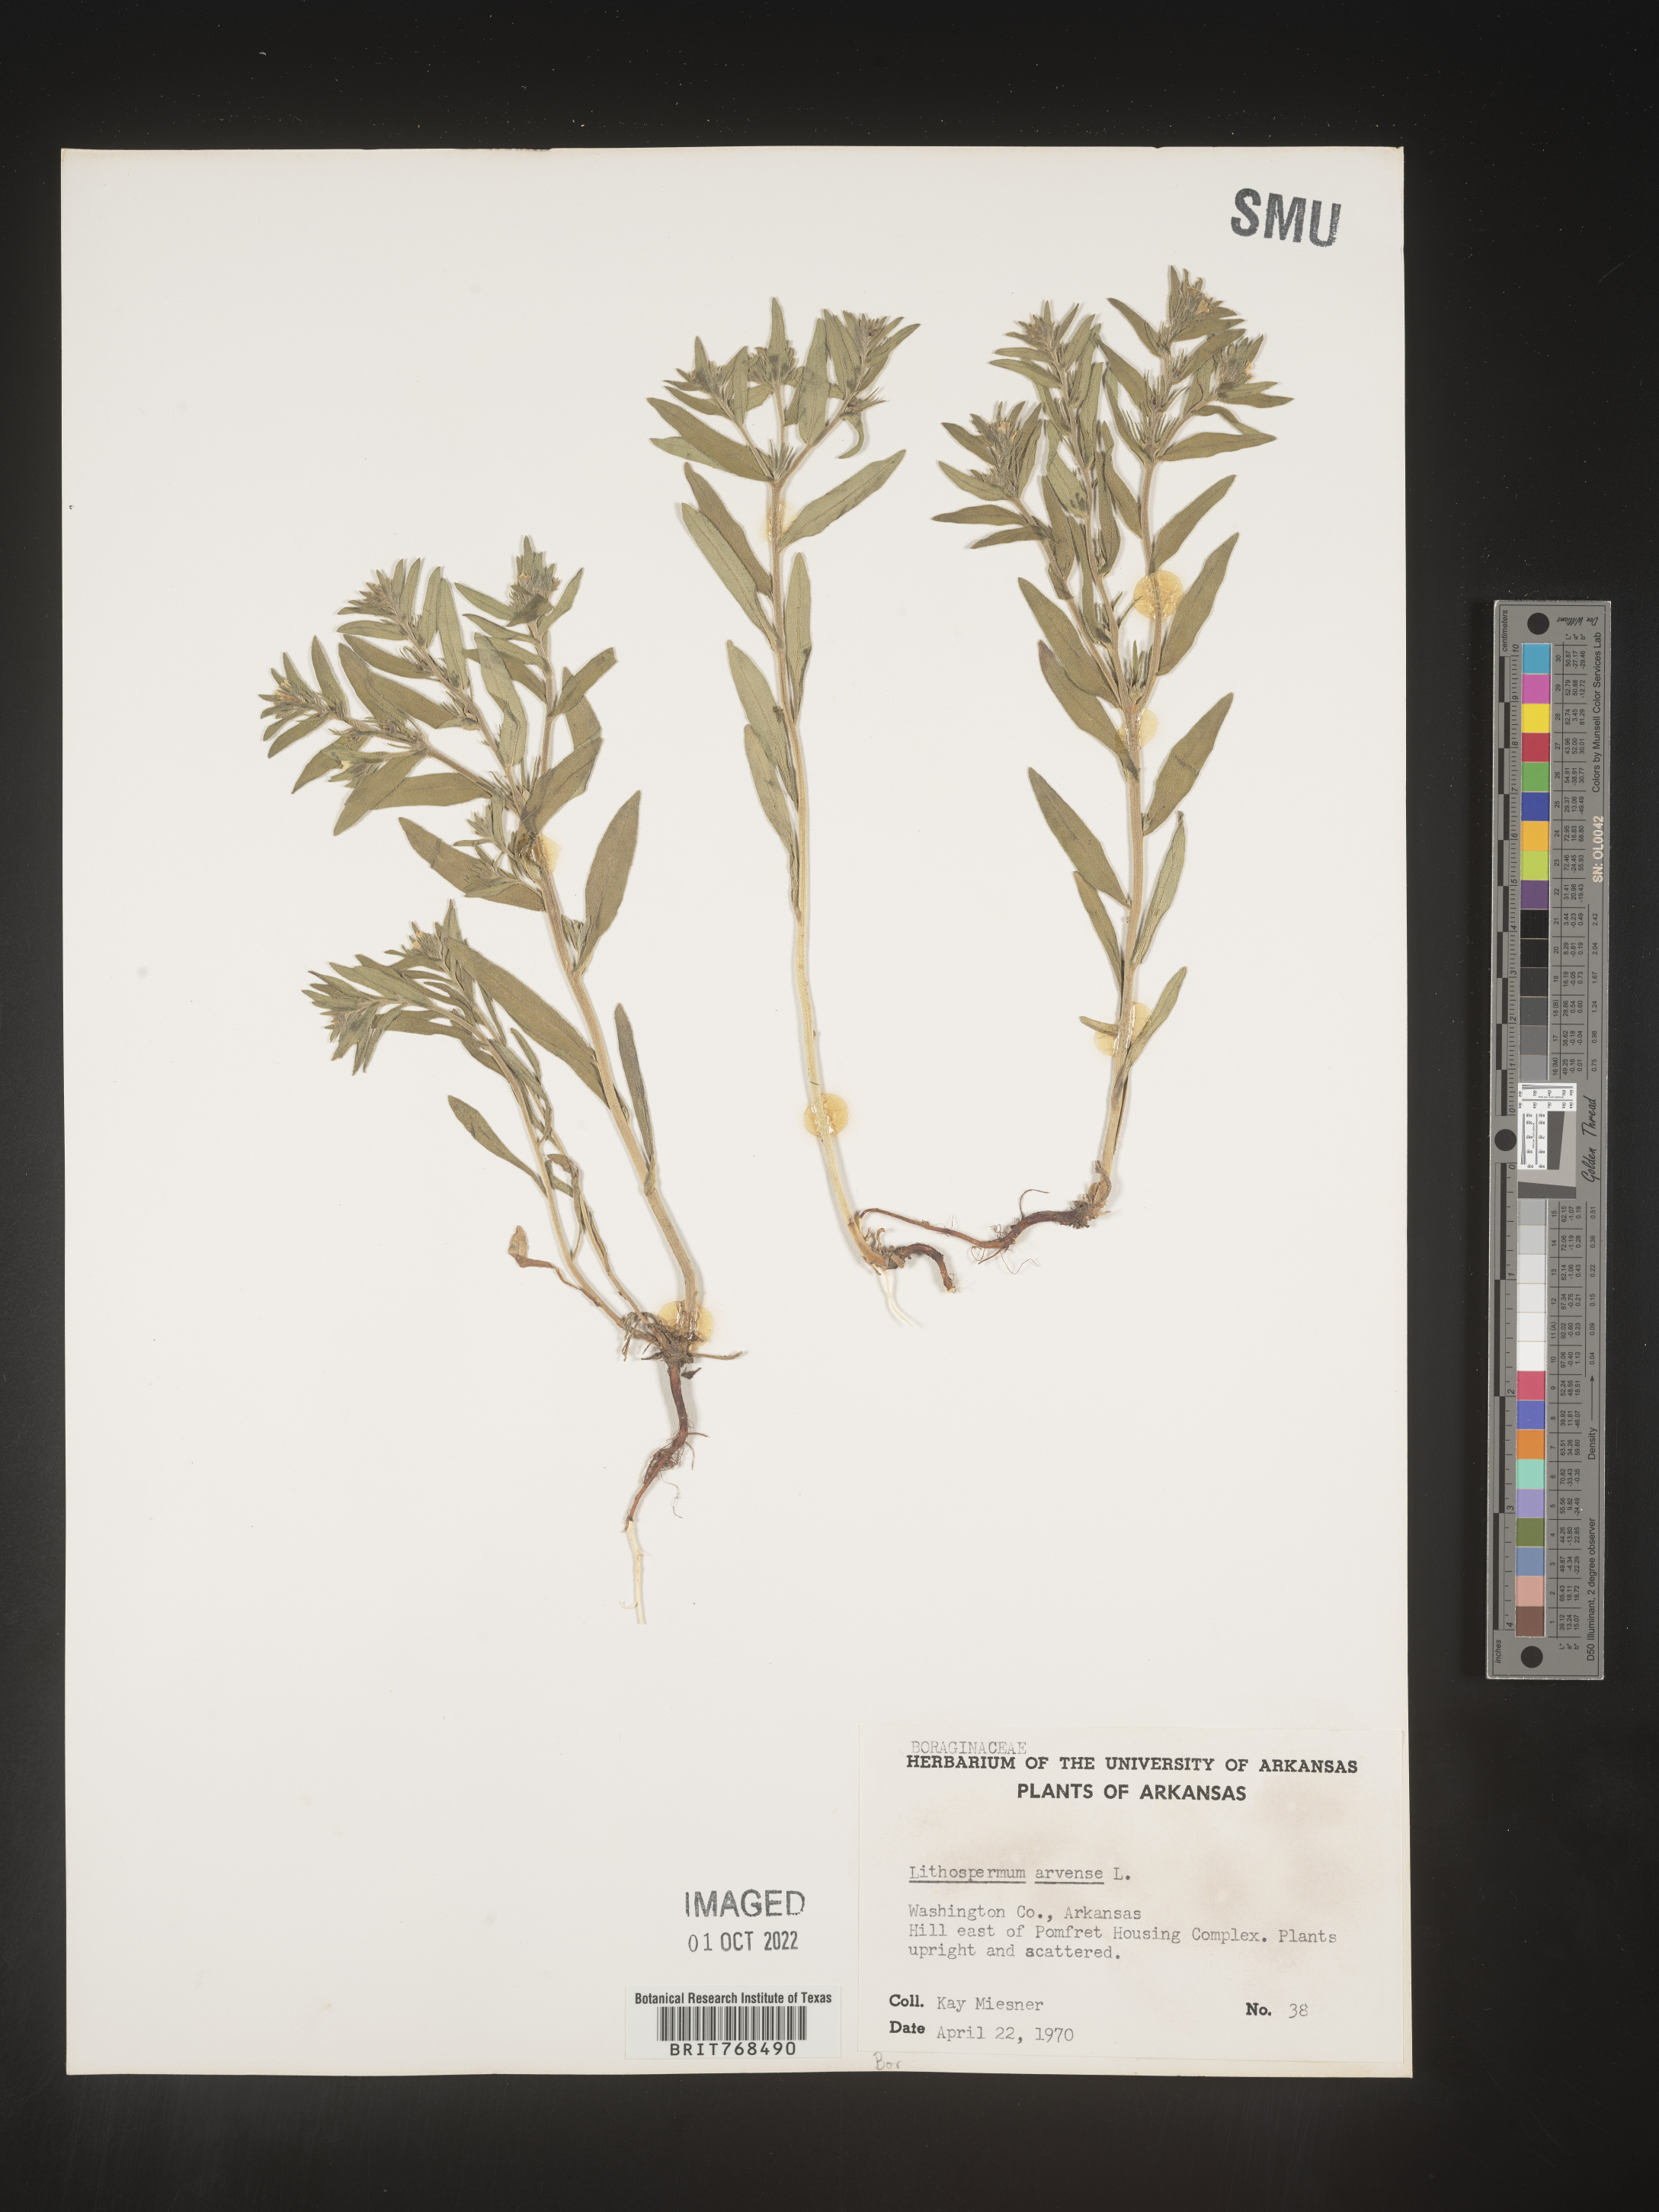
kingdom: Plantae
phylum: Tracheophyta
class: Magnoliopsida
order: Boraginales
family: Boraginaceae
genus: Lithospermum
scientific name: Lithospermum
